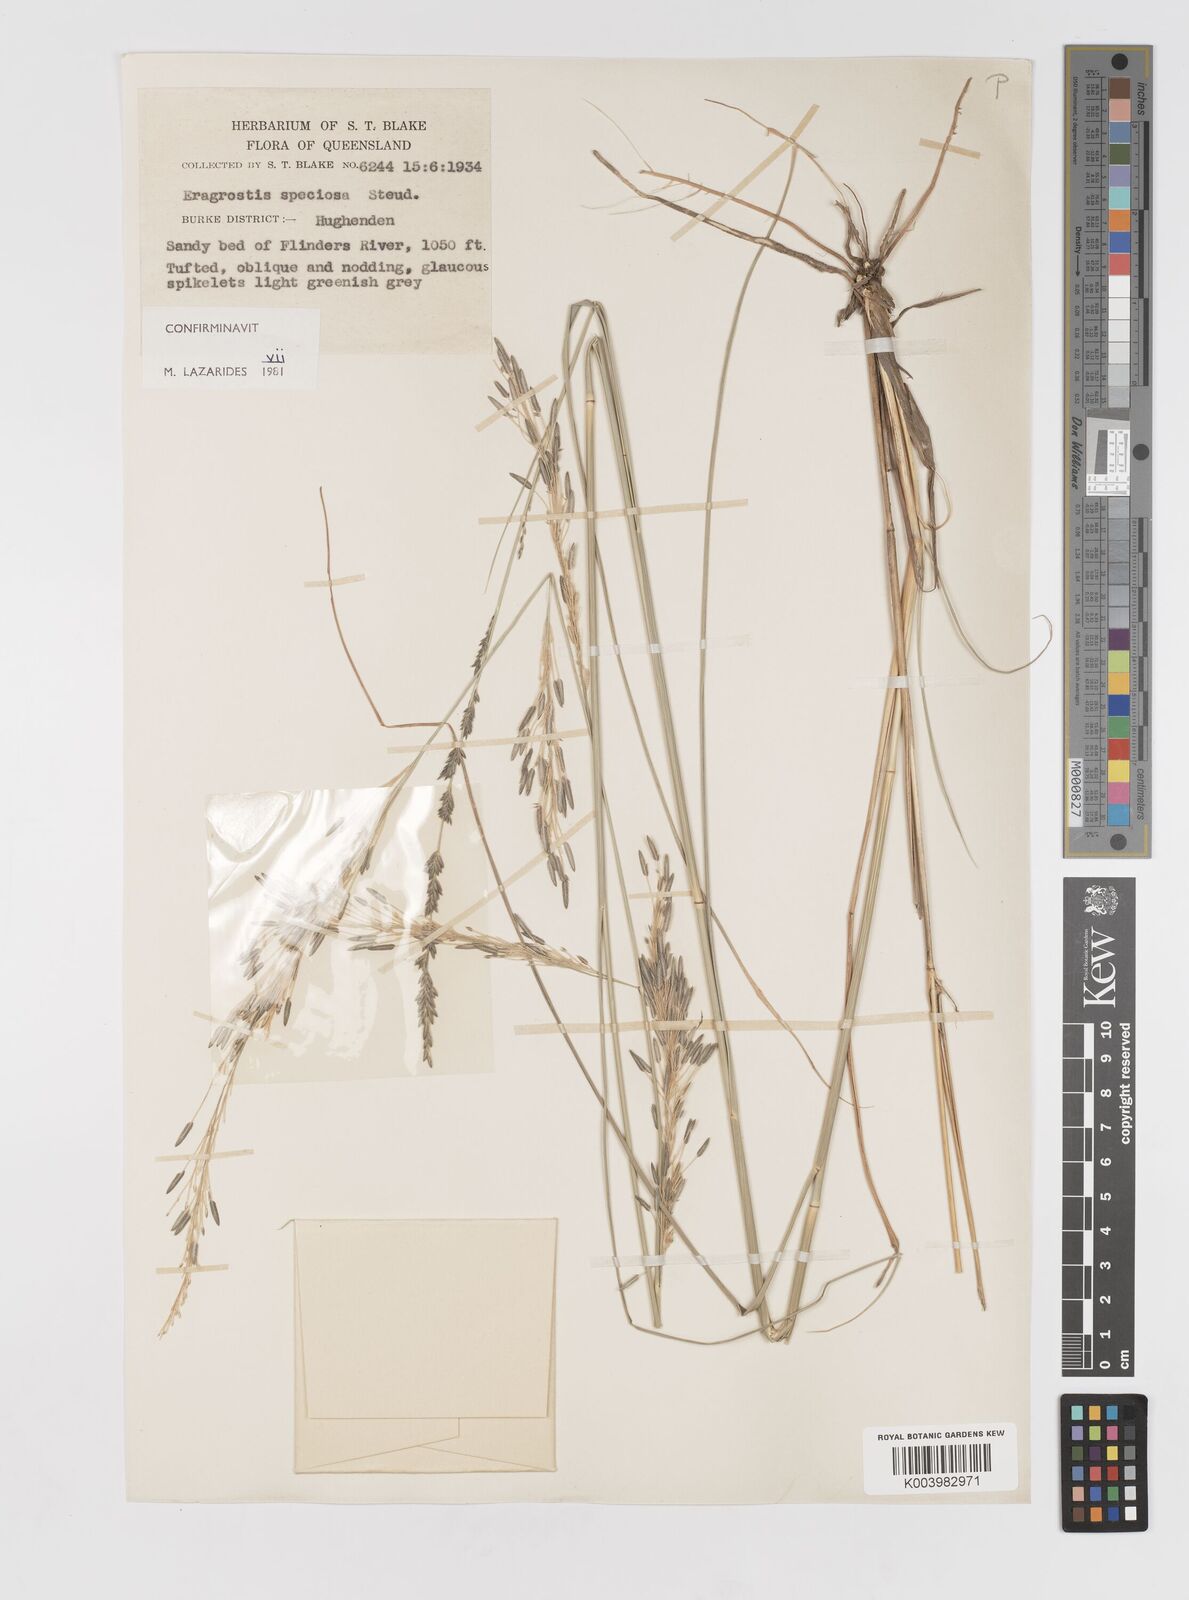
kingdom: Plantae
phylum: Tracheophyta
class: Liliopsida
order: Poales
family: Poaceae
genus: Eragrostis
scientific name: Eragrostis speciosa
